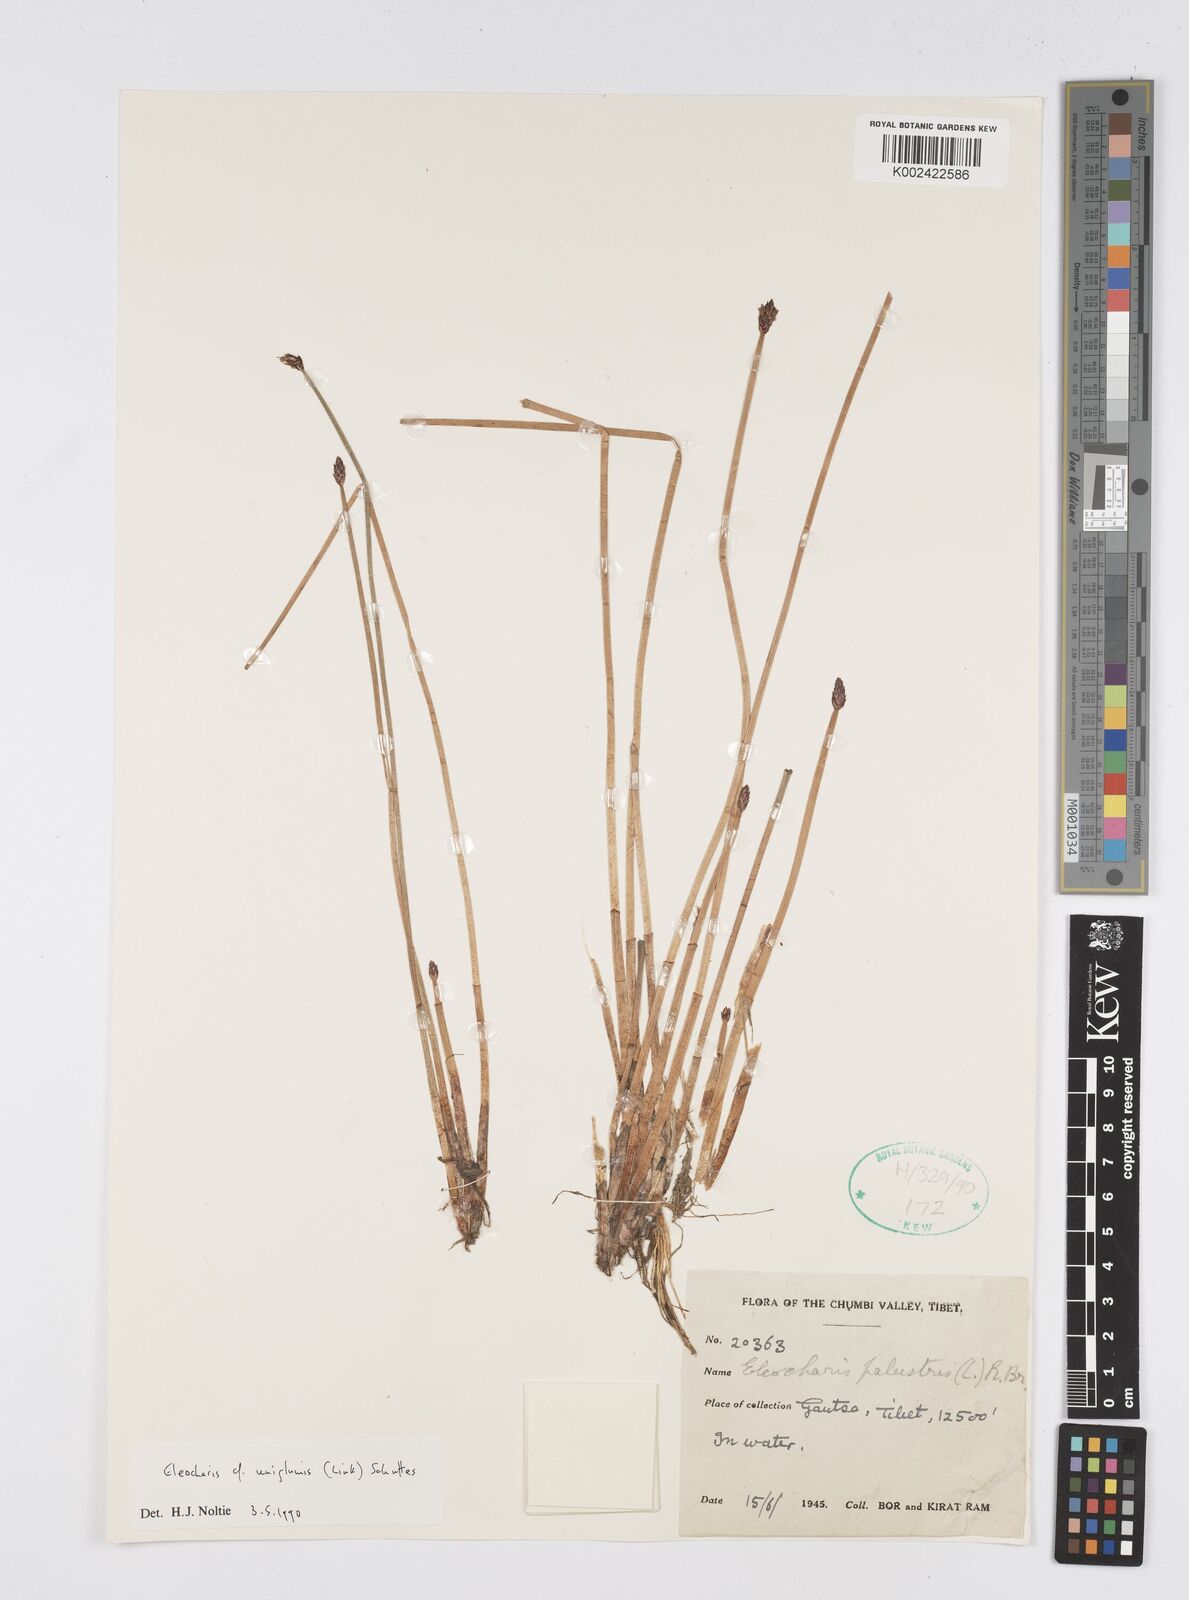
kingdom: Plantae
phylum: Tracheophyta
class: Liliopsida
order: Poales
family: Cyperaceae
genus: Eleocharis
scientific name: Eleocharis uniglumis
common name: Slender spike-rush
